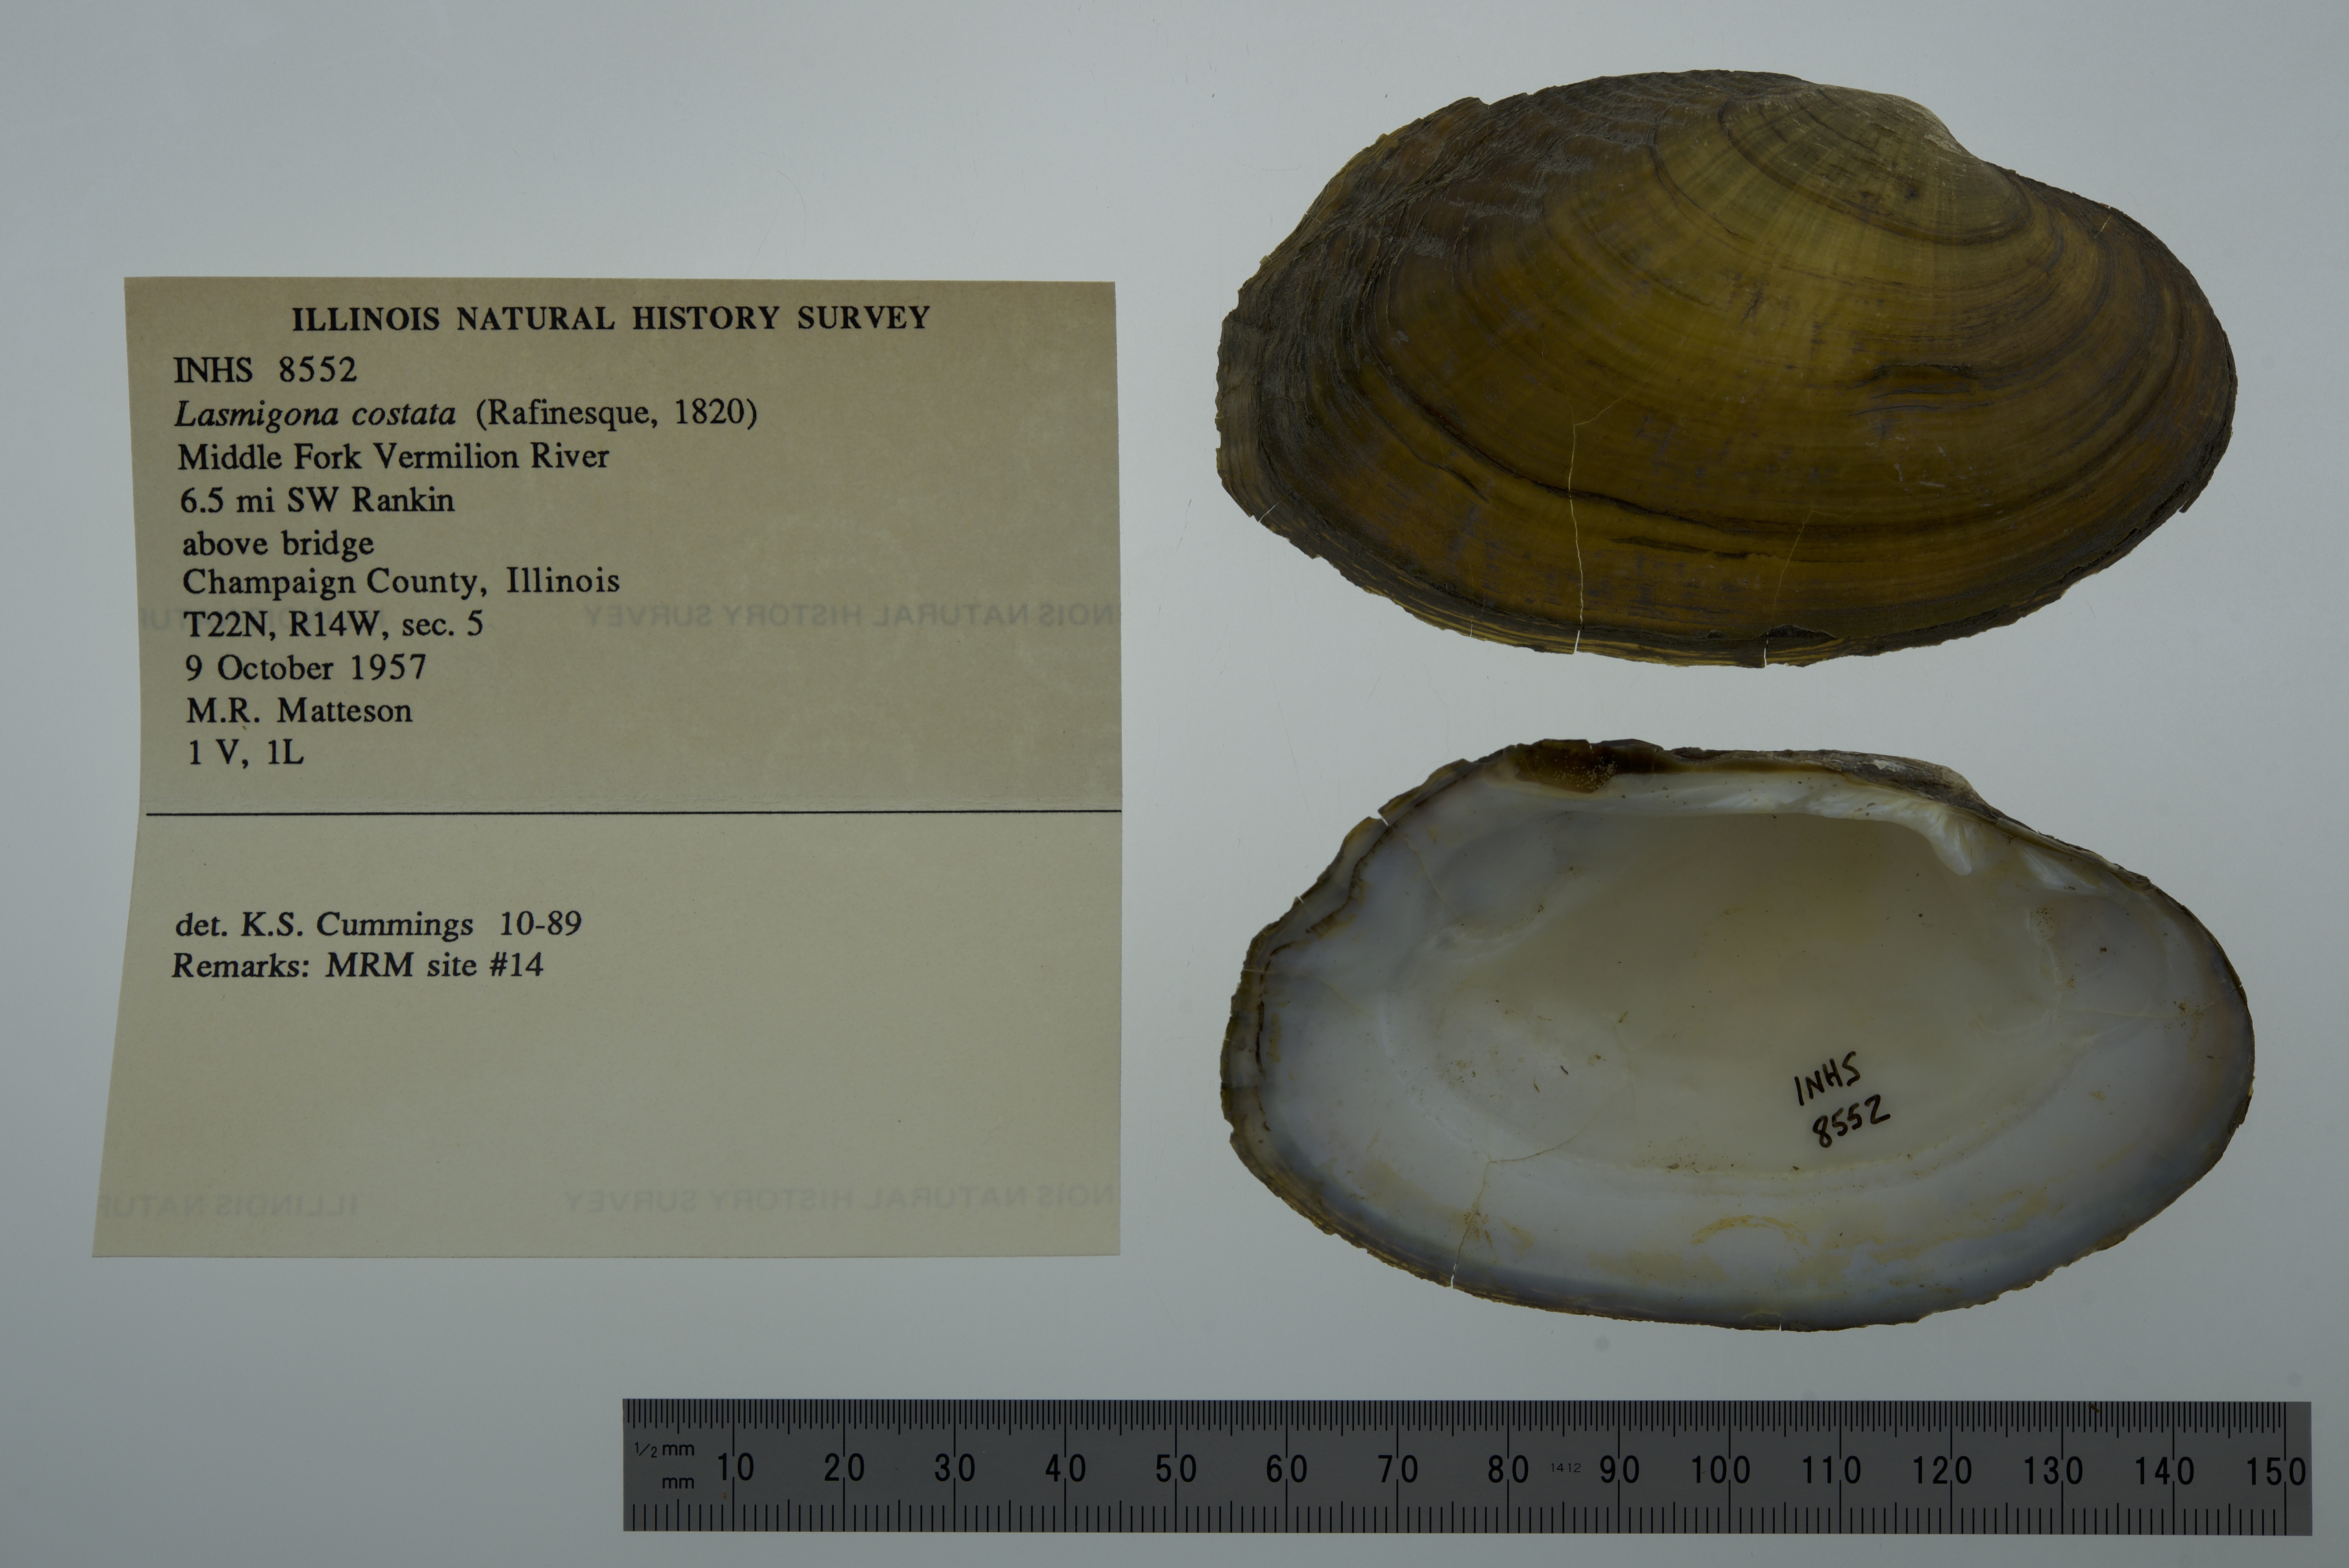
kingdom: Animalia
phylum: Mollusca
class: Bivalvia
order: Unionida
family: Unionidae
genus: Lasmigona
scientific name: Lasmigona costata
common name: Flutedshell
